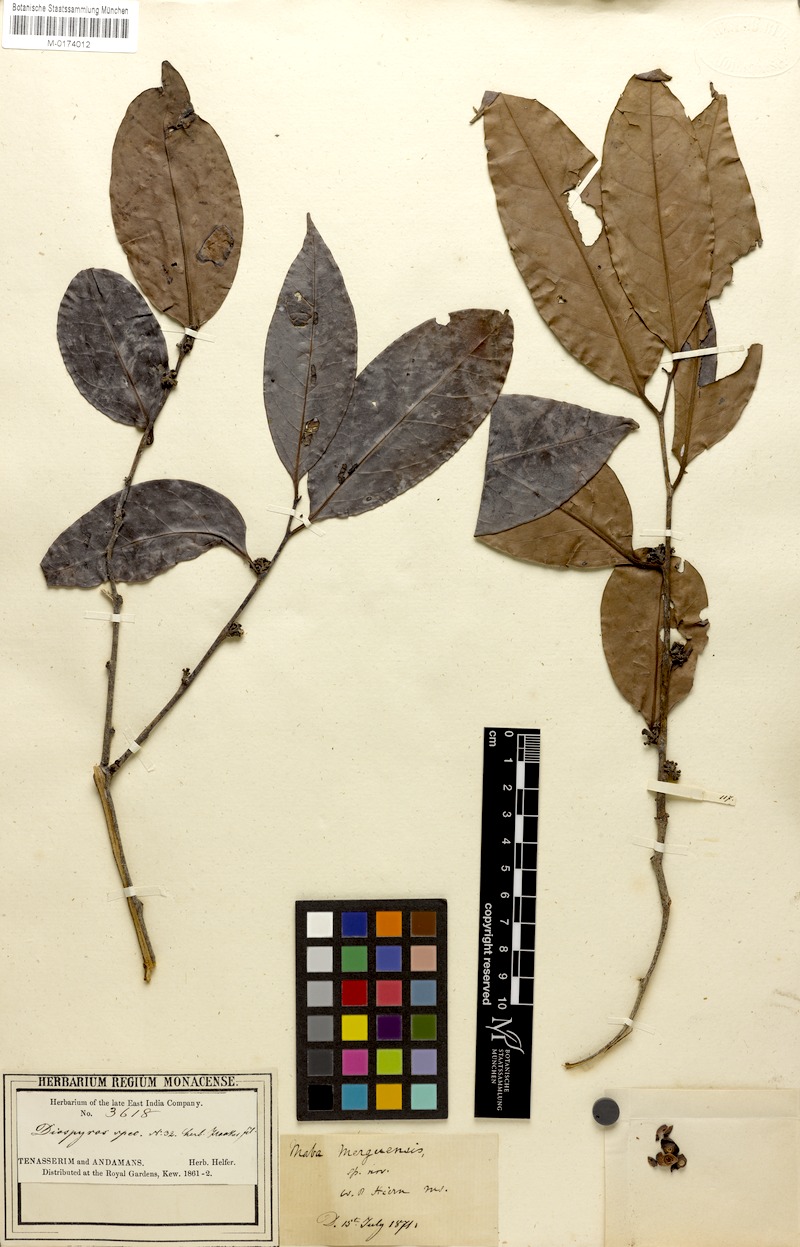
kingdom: Plantae
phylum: Tracheophyta
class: Magnoliopsida
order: Ericales
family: Ebenaceae
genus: Diospyros
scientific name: Diospyros venosa
